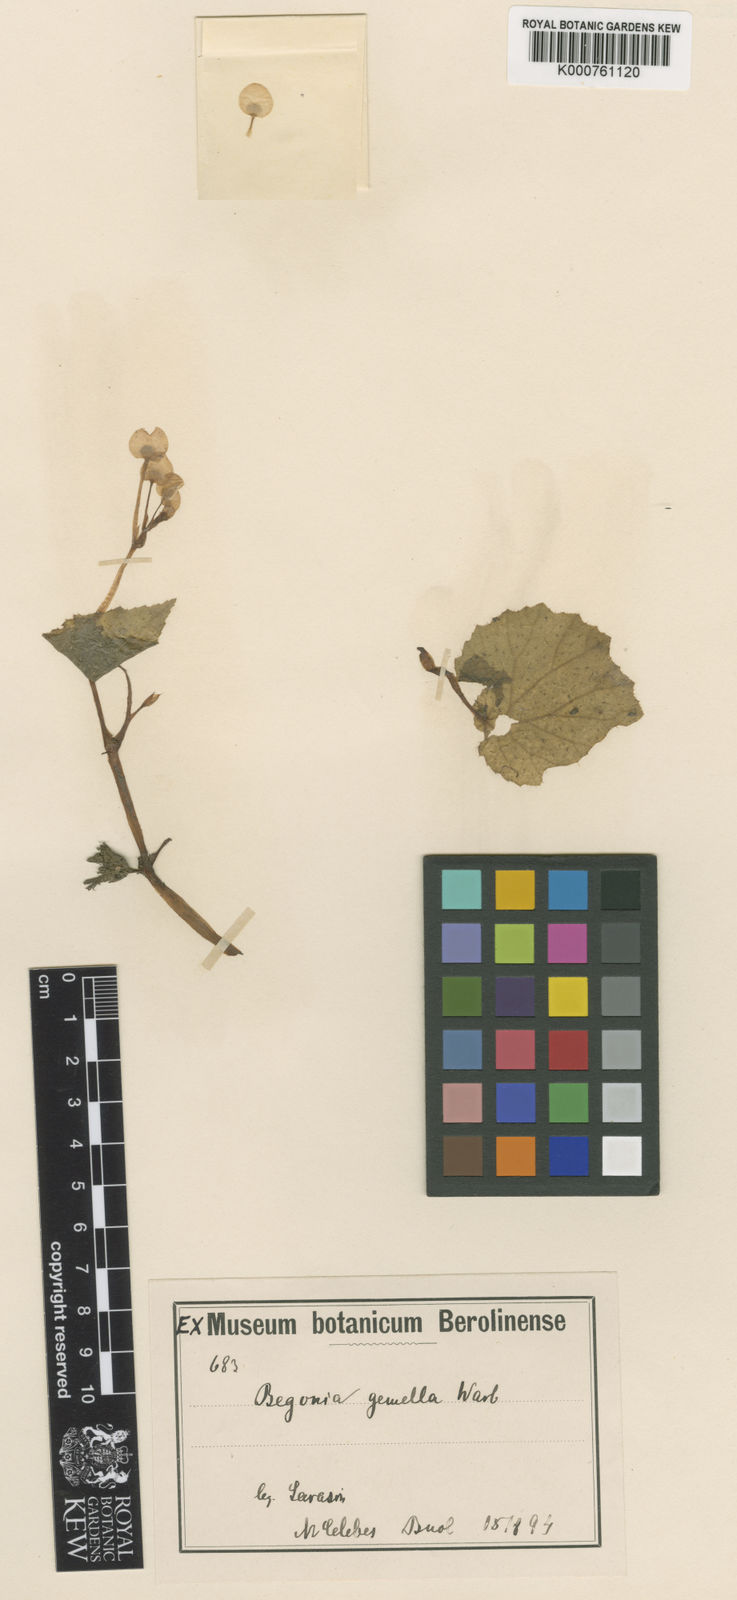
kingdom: Plantae
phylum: Tracheophyta
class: Magnoliopsida
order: Cucurbitales
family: Begoniaceae
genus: Begonia
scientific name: Begonia
